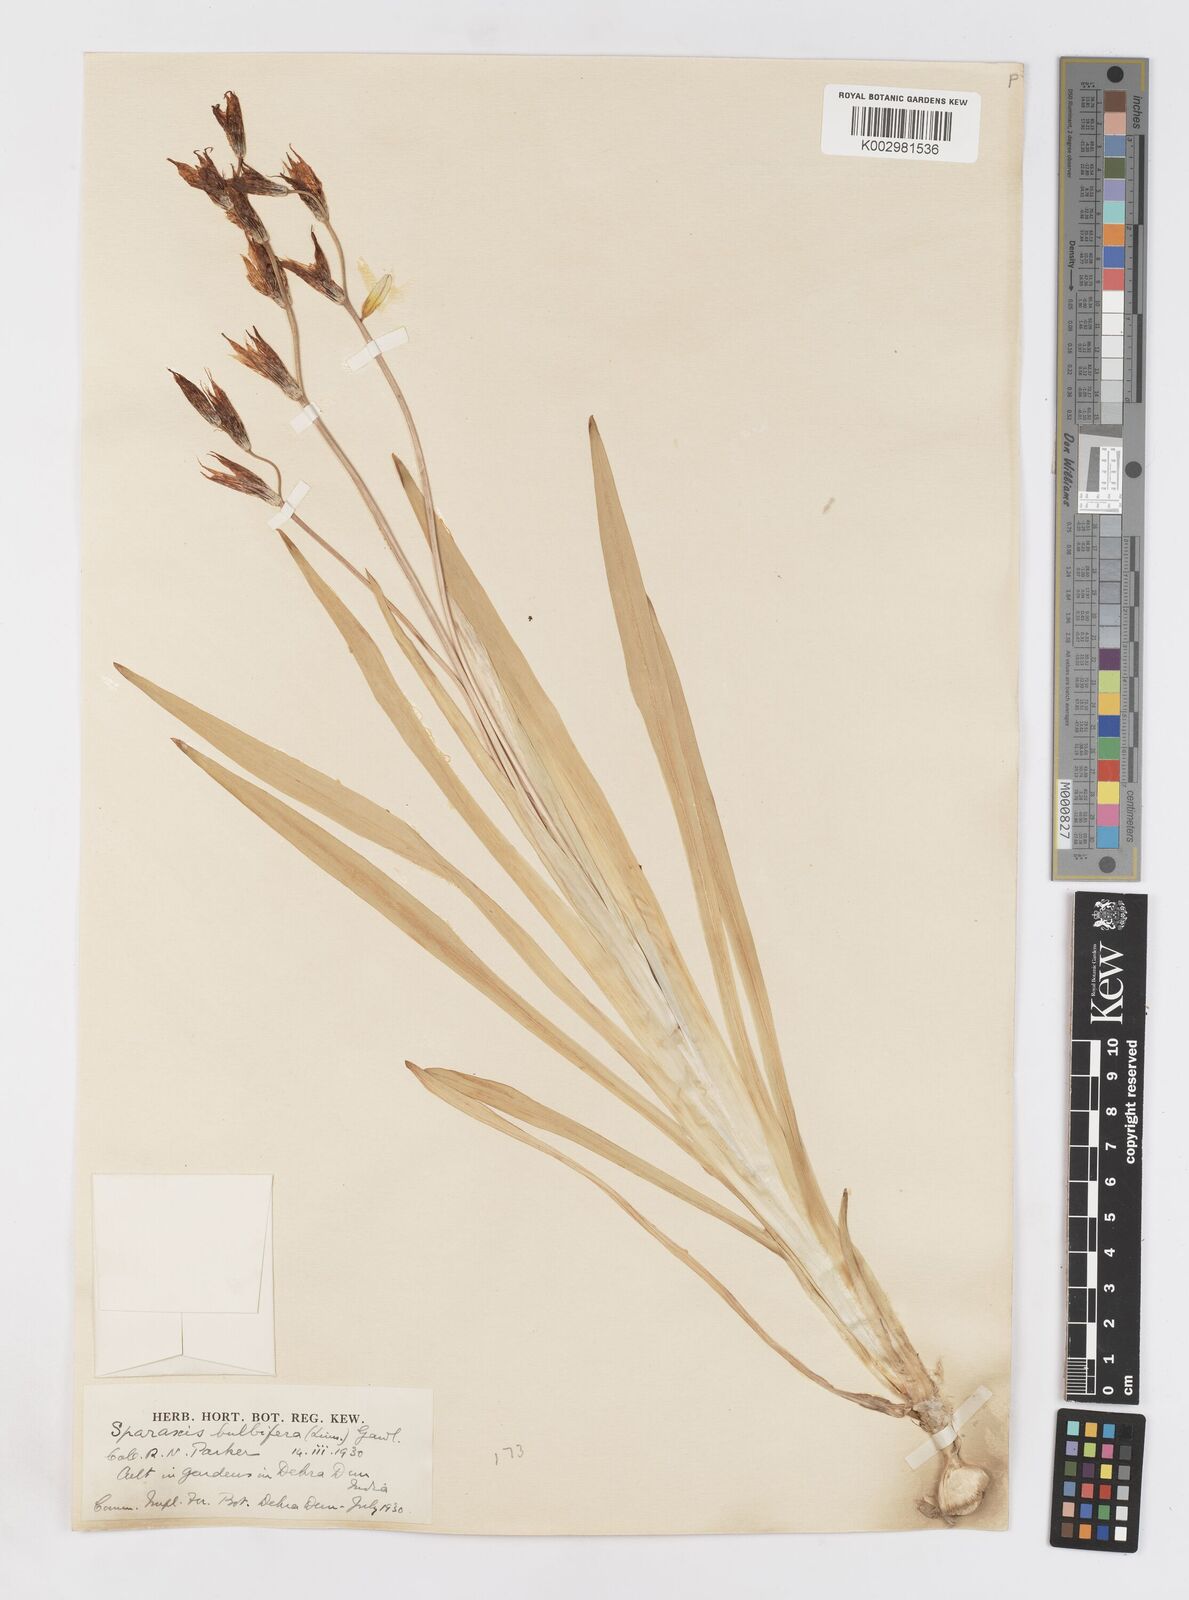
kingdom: Plantae
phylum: Tracheophyta
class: Liliopsida
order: Asparagales
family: Iridaceae
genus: Sparaxis
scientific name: Sparaxis
